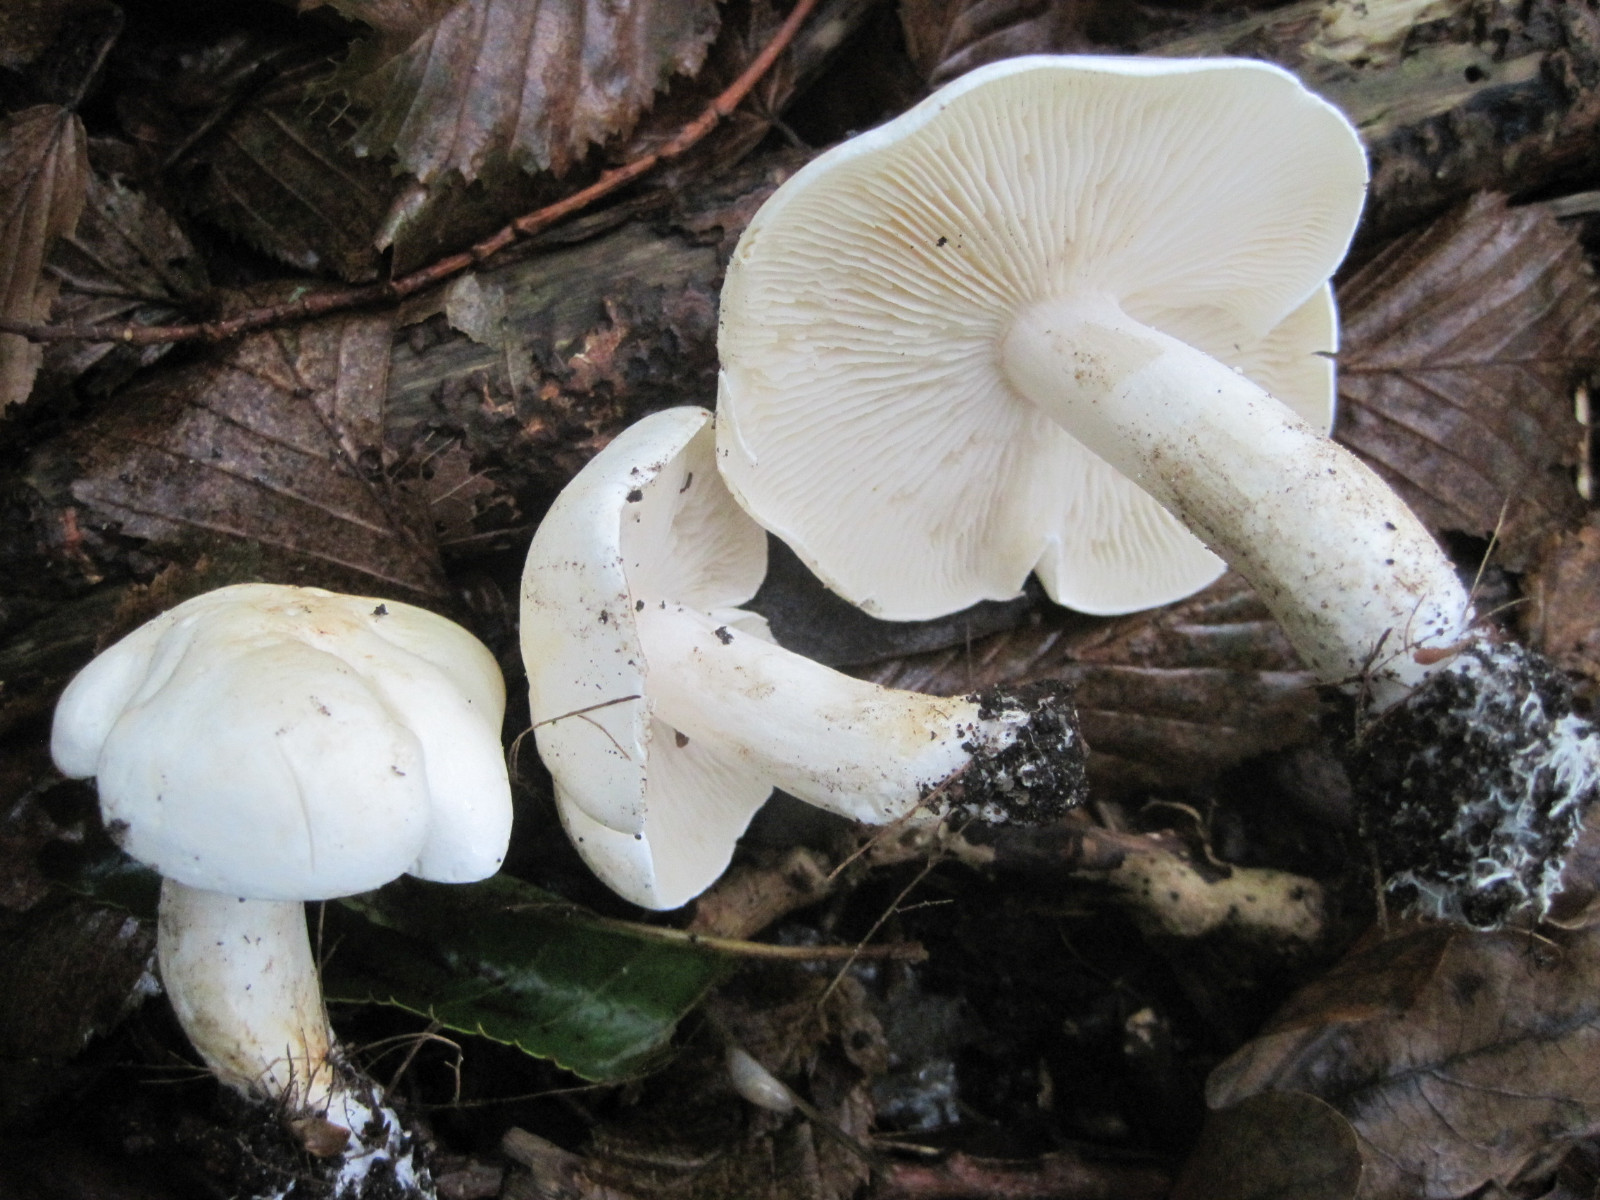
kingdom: Fungi
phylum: Basidiomycota
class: Agaricomycetes
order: Agaricales
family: Tricholomataceae
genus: Tricholoma
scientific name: Tricholoma
